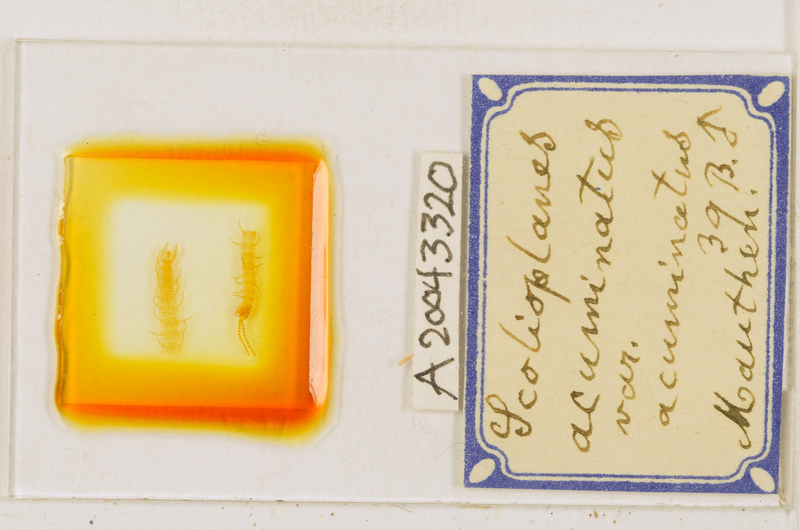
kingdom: Animalia
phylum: Arthropoda
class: Chilopoda
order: Geophilomorpha
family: Linotaeniidae
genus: Strigamia
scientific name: Strigamia acuminata
